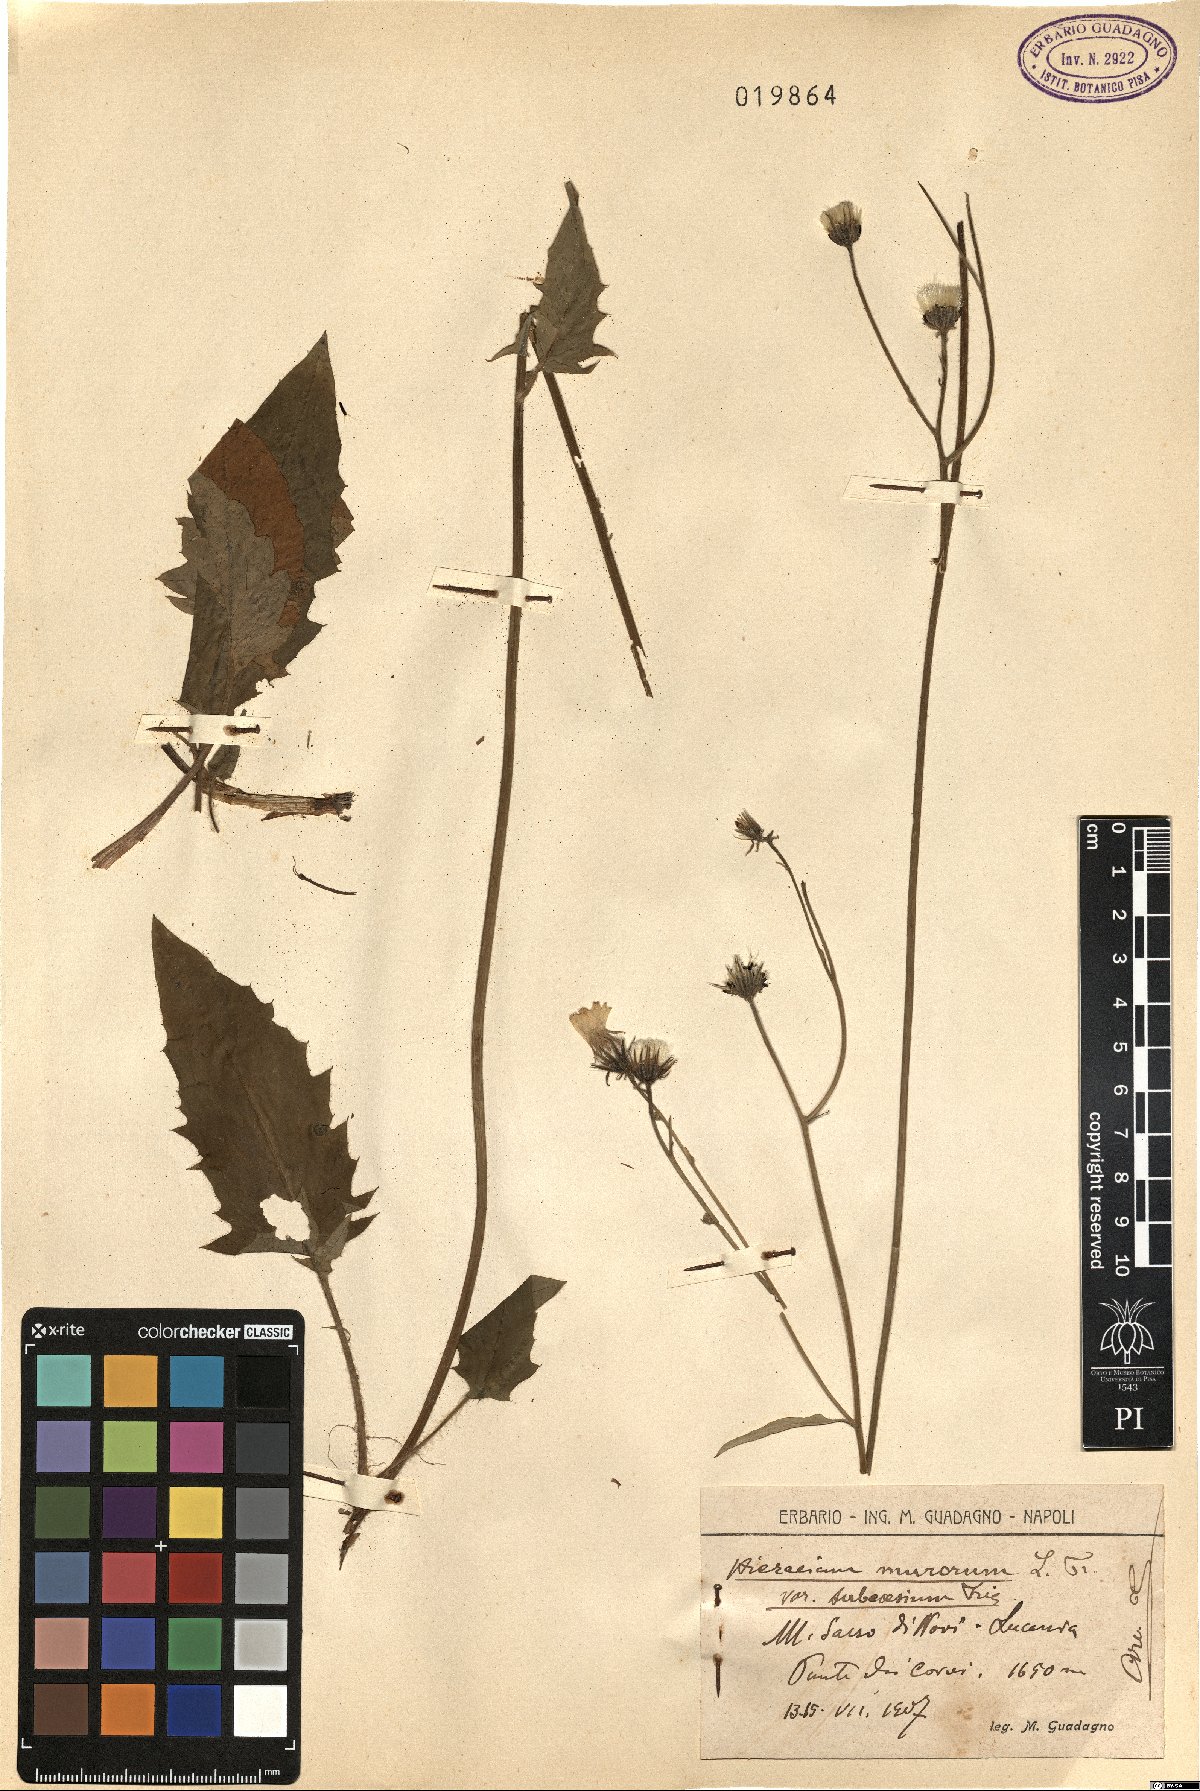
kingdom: Plantae
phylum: Tracheophyta
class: Magnoliopsida
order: Asterales
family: Asteraceae
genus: Hieracium
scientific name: Hieracium subcaesium
